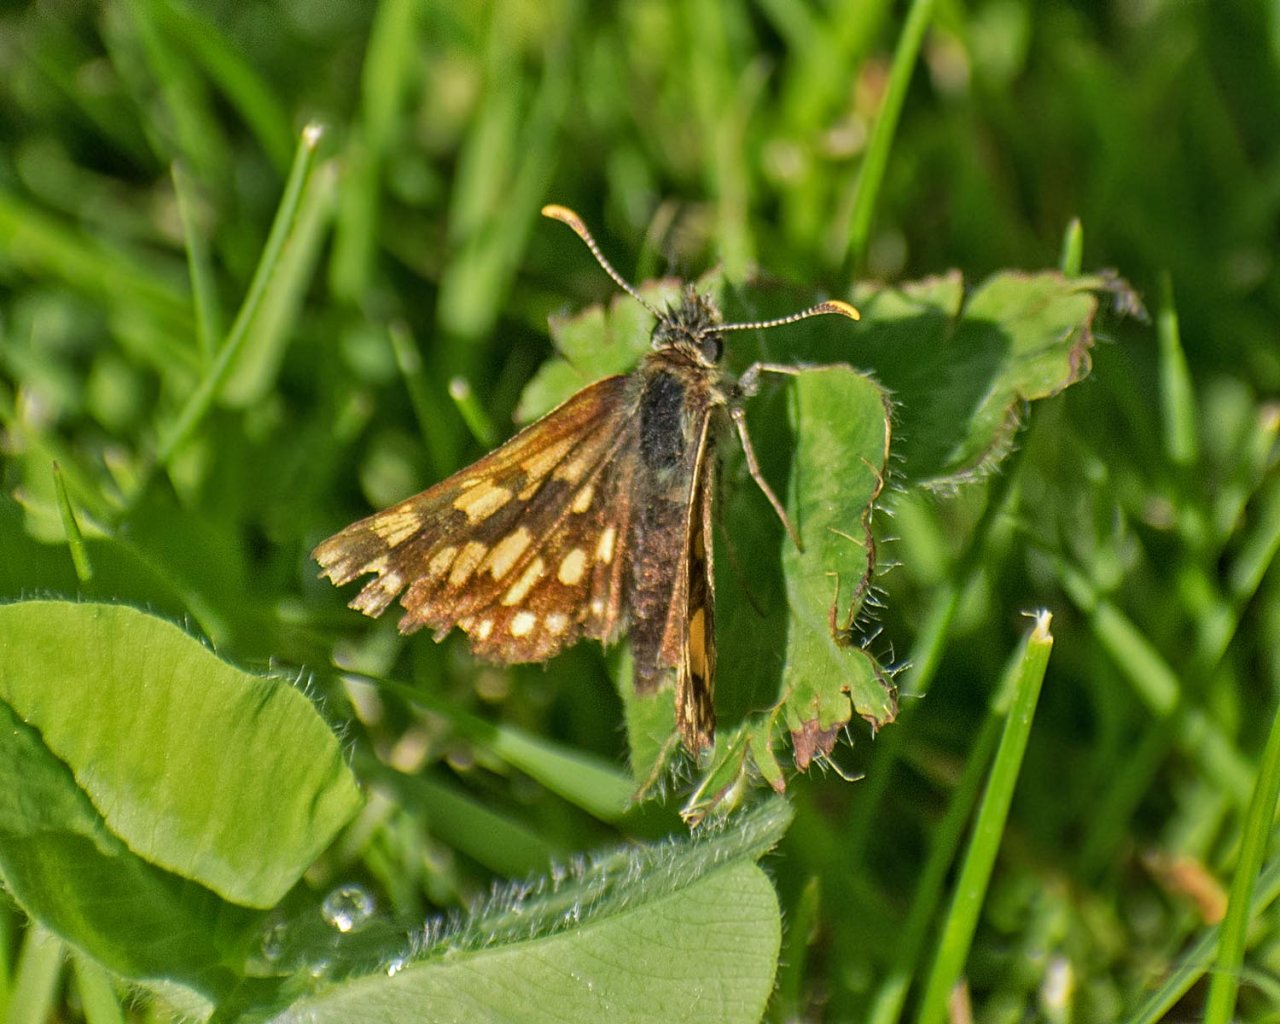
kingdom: Animalia
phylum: Arthropoda
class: Insecta
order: Lepidoptera
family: Hesperiidae
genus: Carterocephalus
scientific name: Carterocephalus palaemon
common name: Chequered Skipper
